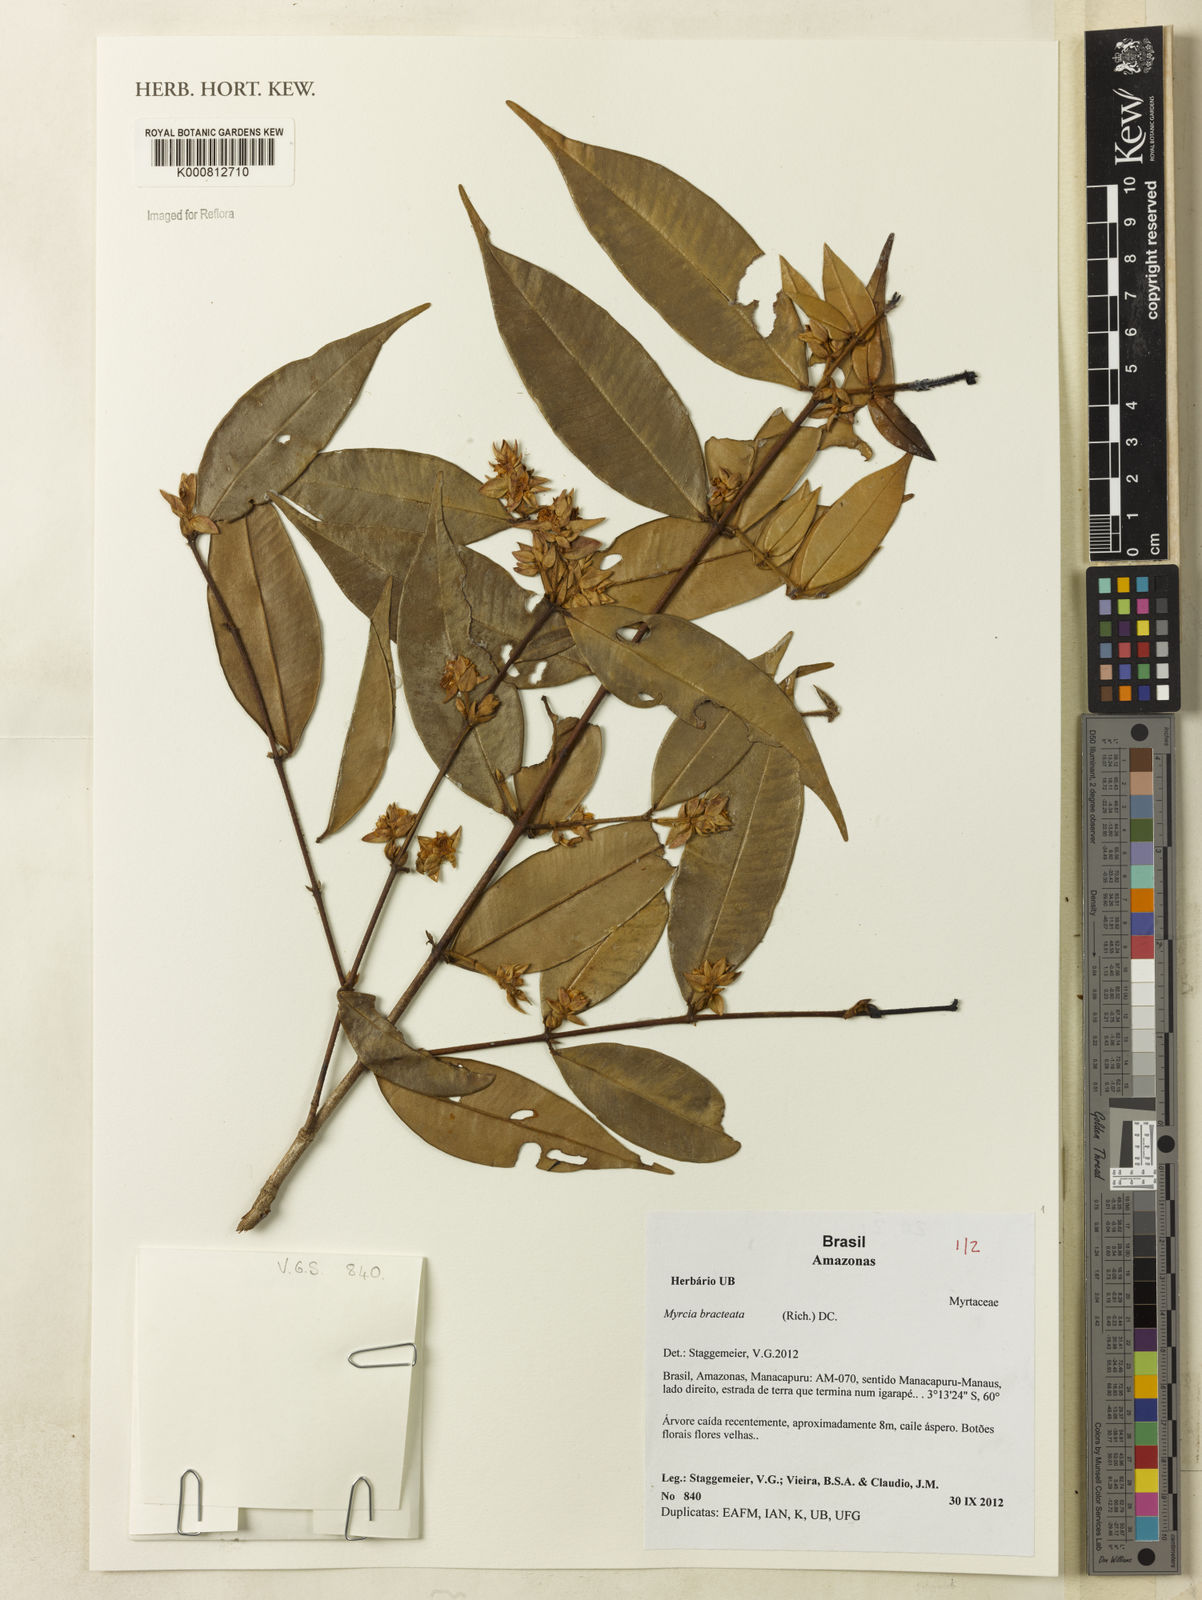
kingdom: Plantae
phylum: Tracheophyta
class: Magnoliopsida
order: Myrtales
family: Myrtaceae
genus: Myrcia
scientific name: Myrcia bracteata
